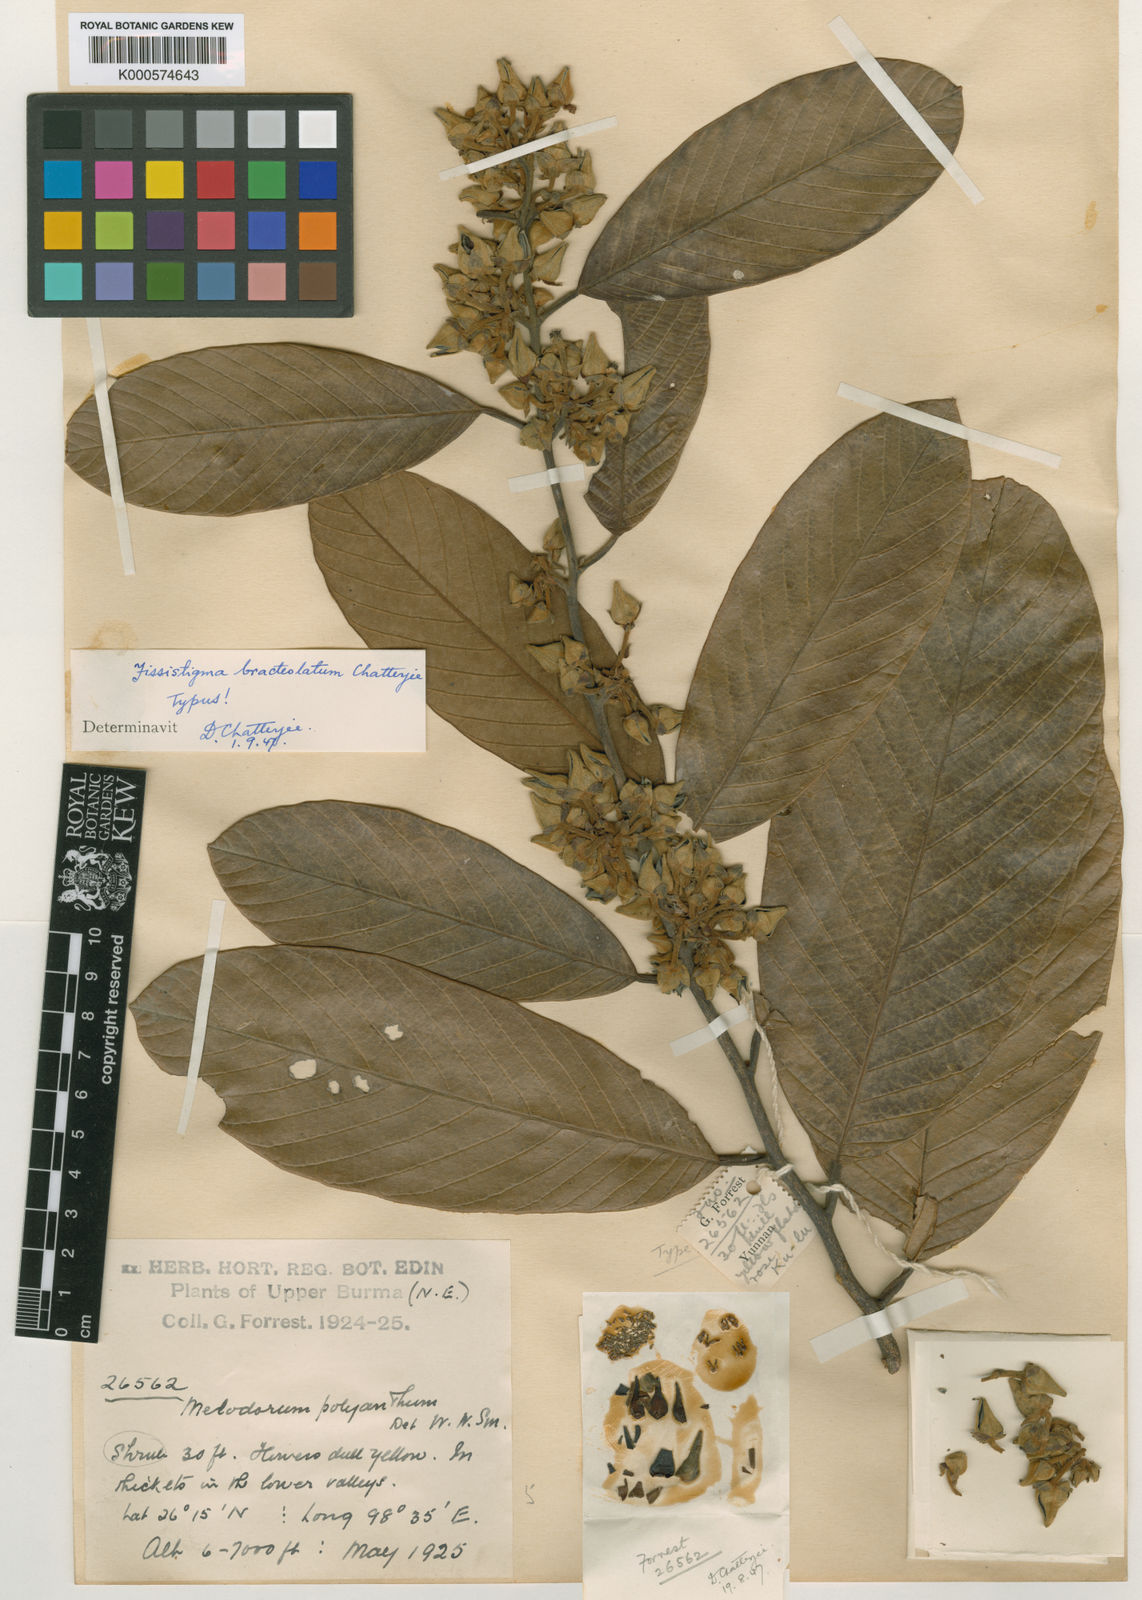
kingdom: Plantae
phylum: Tracheophyta
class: Magnoliopsida
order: Magnoliales
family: Annonaceae
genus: Fissistigma
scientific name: Fissistigma bracteolatum
